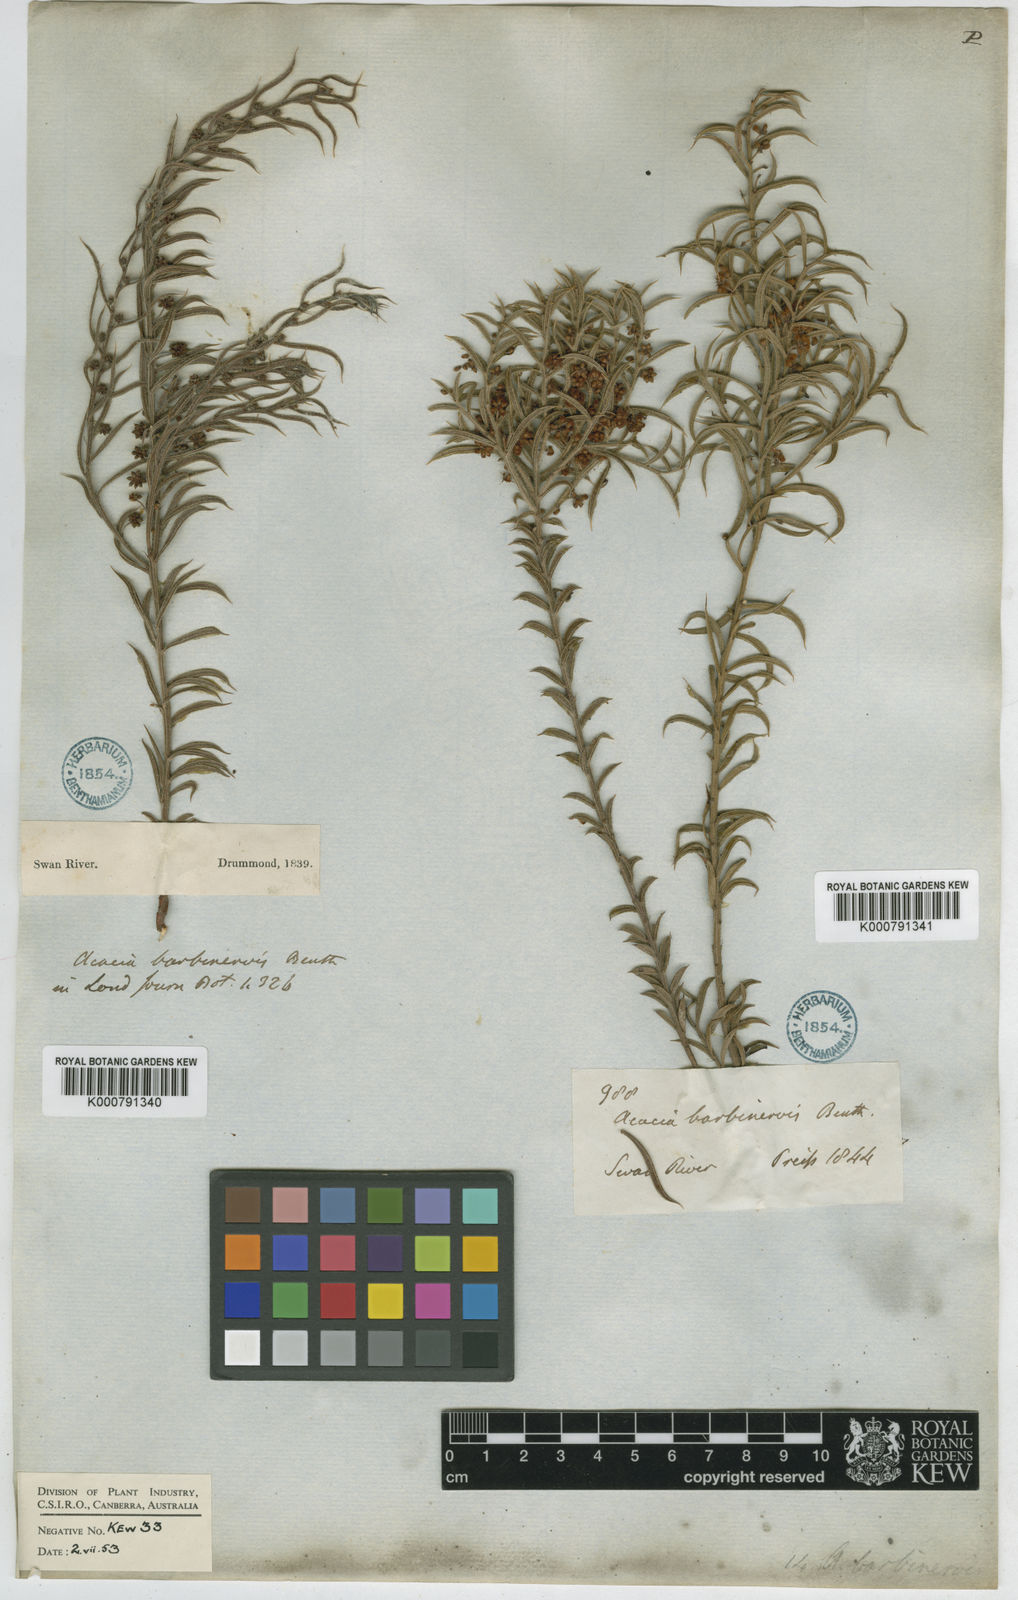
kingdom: Plantae
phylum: Tracheophyta
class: Magnoliopsida
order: Fabales
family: Fabaceae
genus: Acacia
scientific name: Acacia barbinervis
